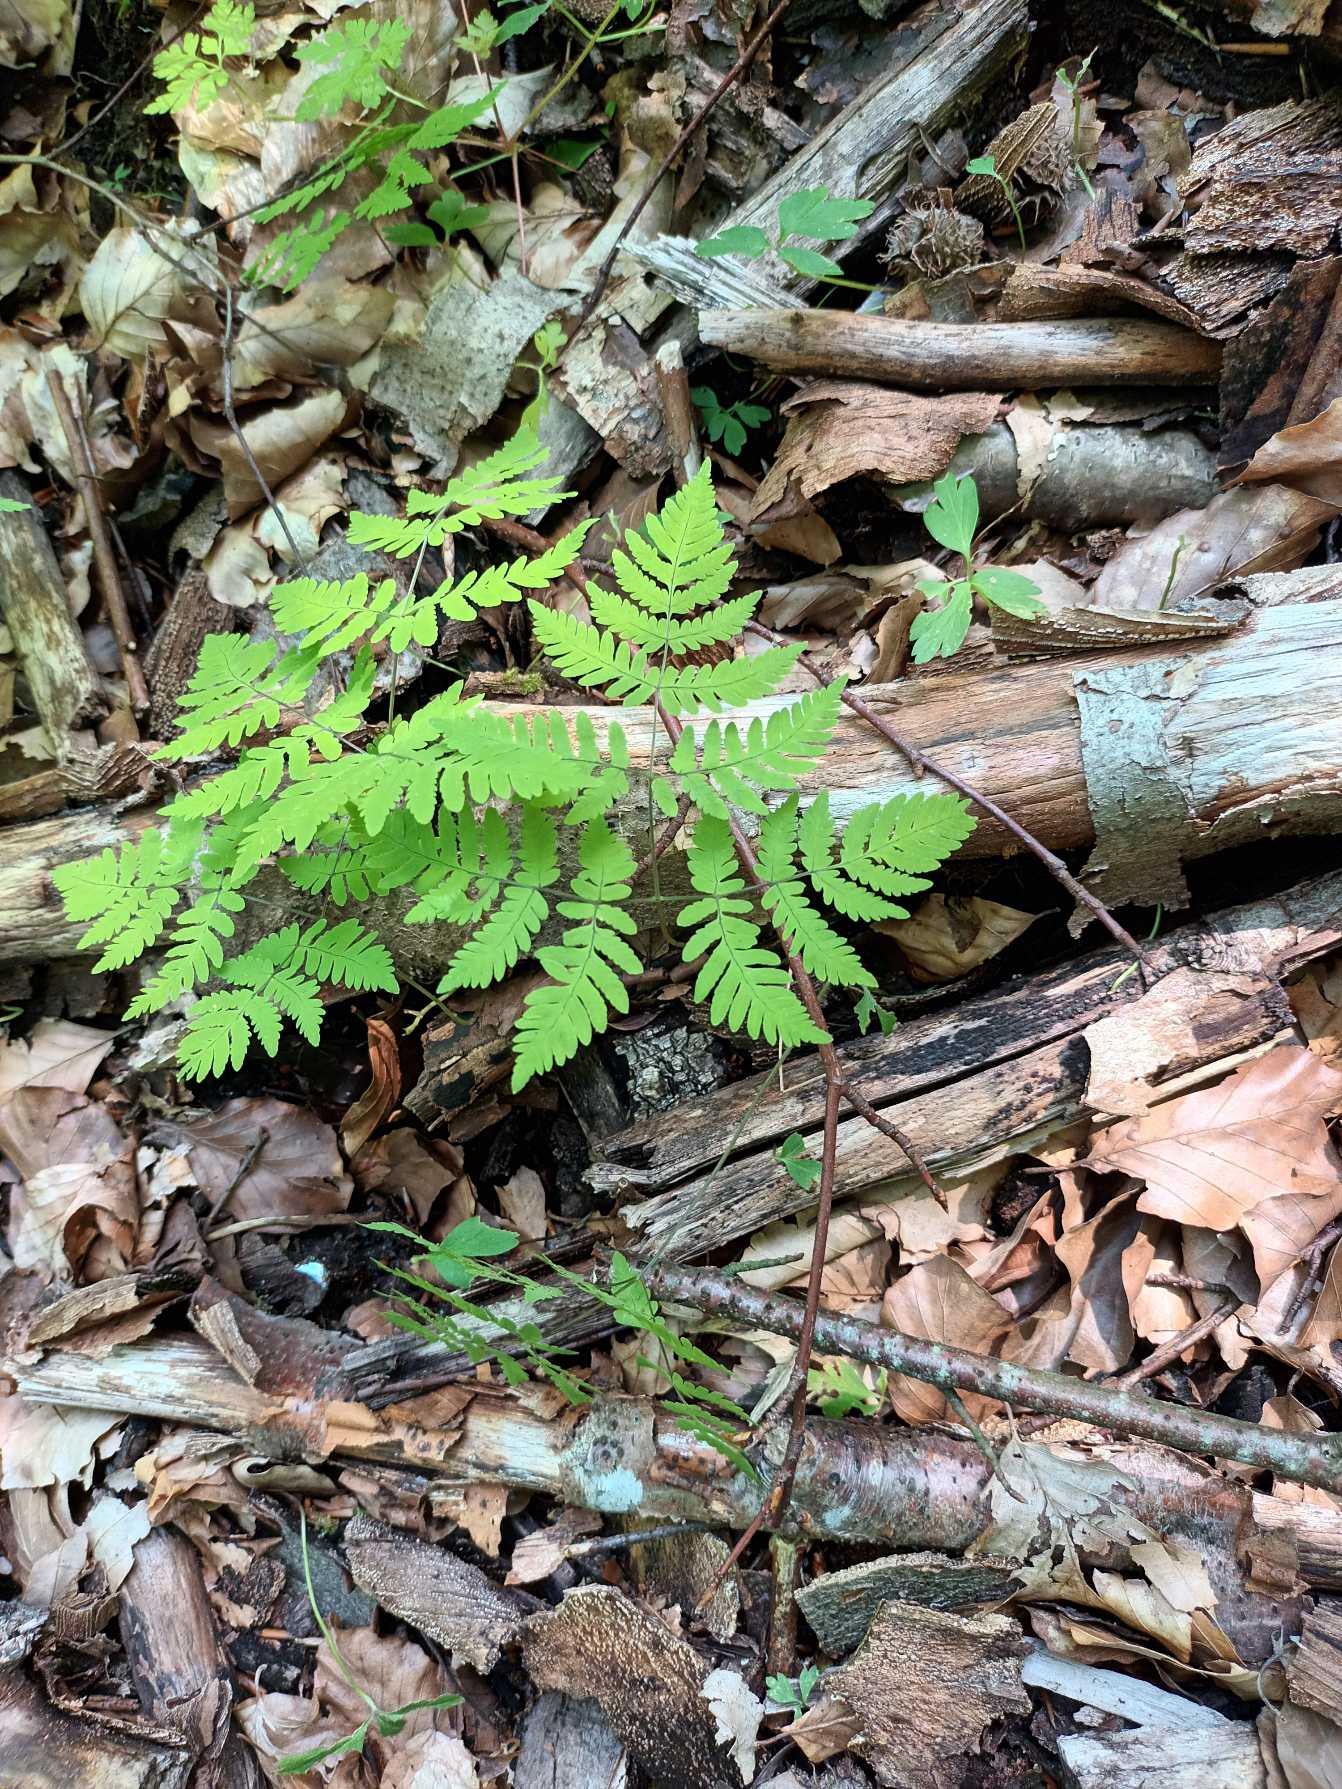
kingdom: Plantae
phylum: Tracheophyta
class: Polypodiopsida
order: Polypodiales
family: Cystopteridaceae
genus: Gymnocarpium
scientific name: Gymnocarpium dryopteris
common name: Tredelt egebregne
